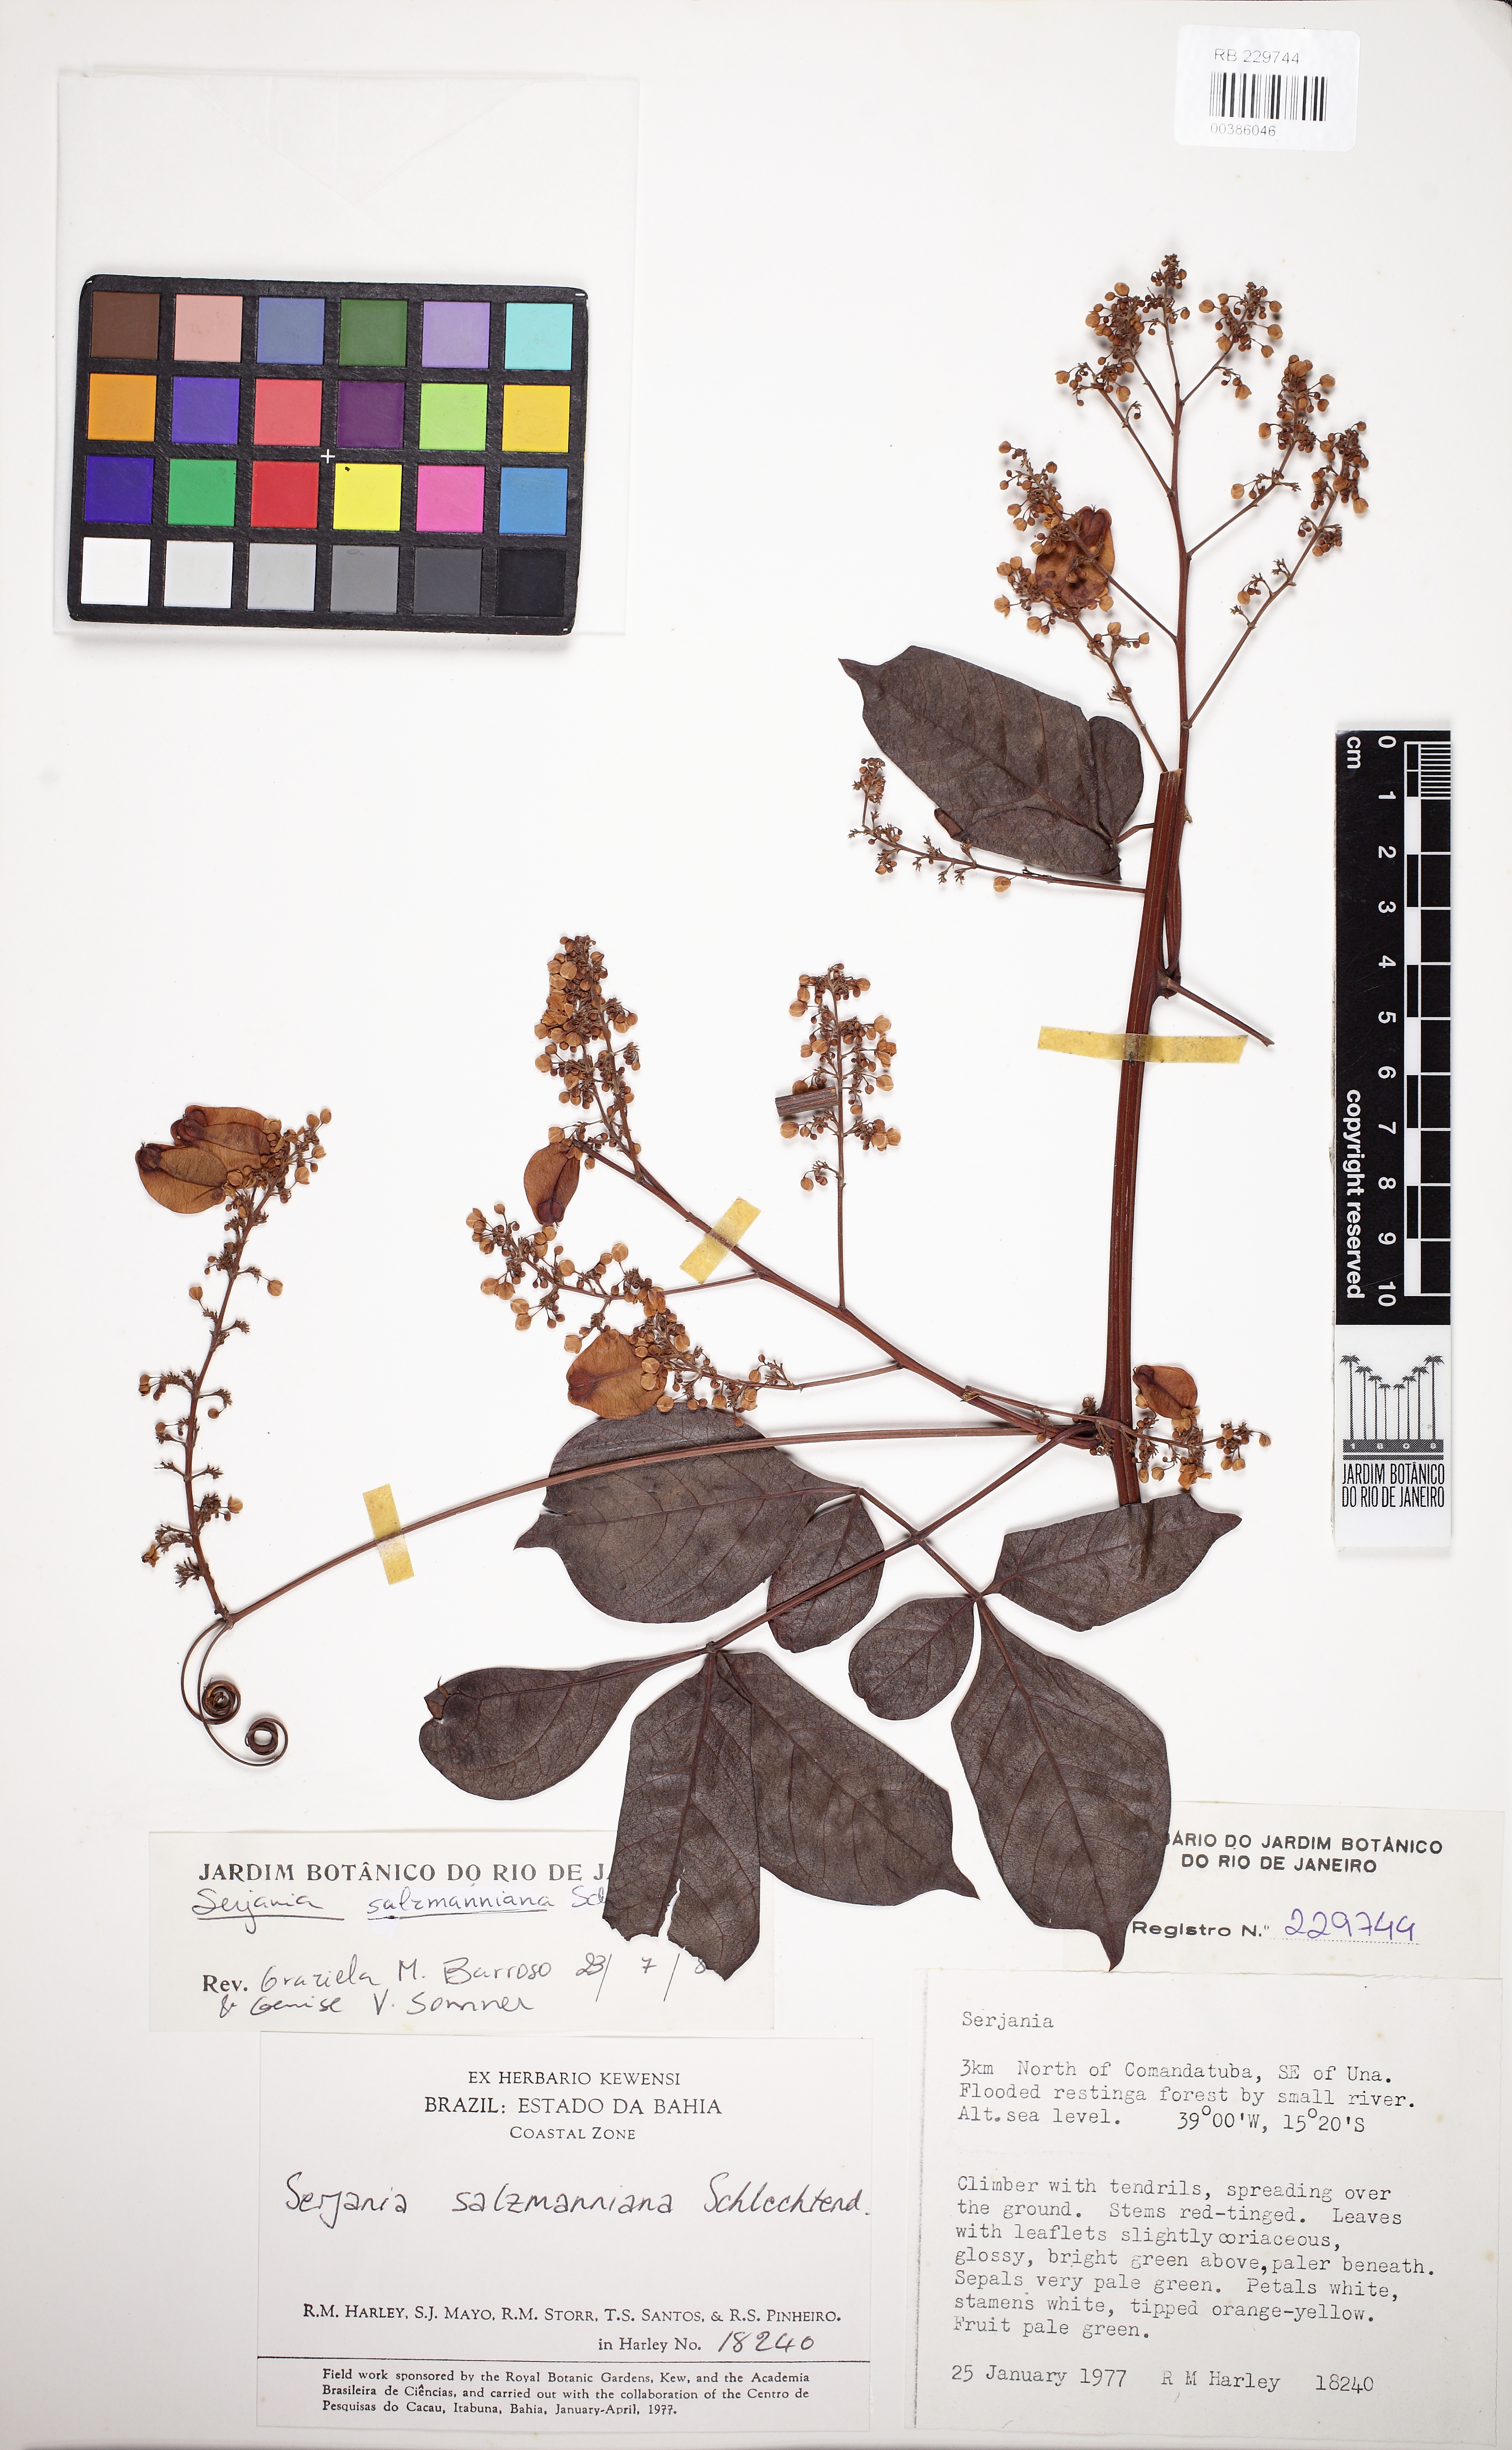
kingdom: Plantae
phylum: Tracheophyta
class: Magnoliopsida
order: Sapindales
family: Sapindaceae
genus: Serjania
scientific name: Serjania salzmanniana
